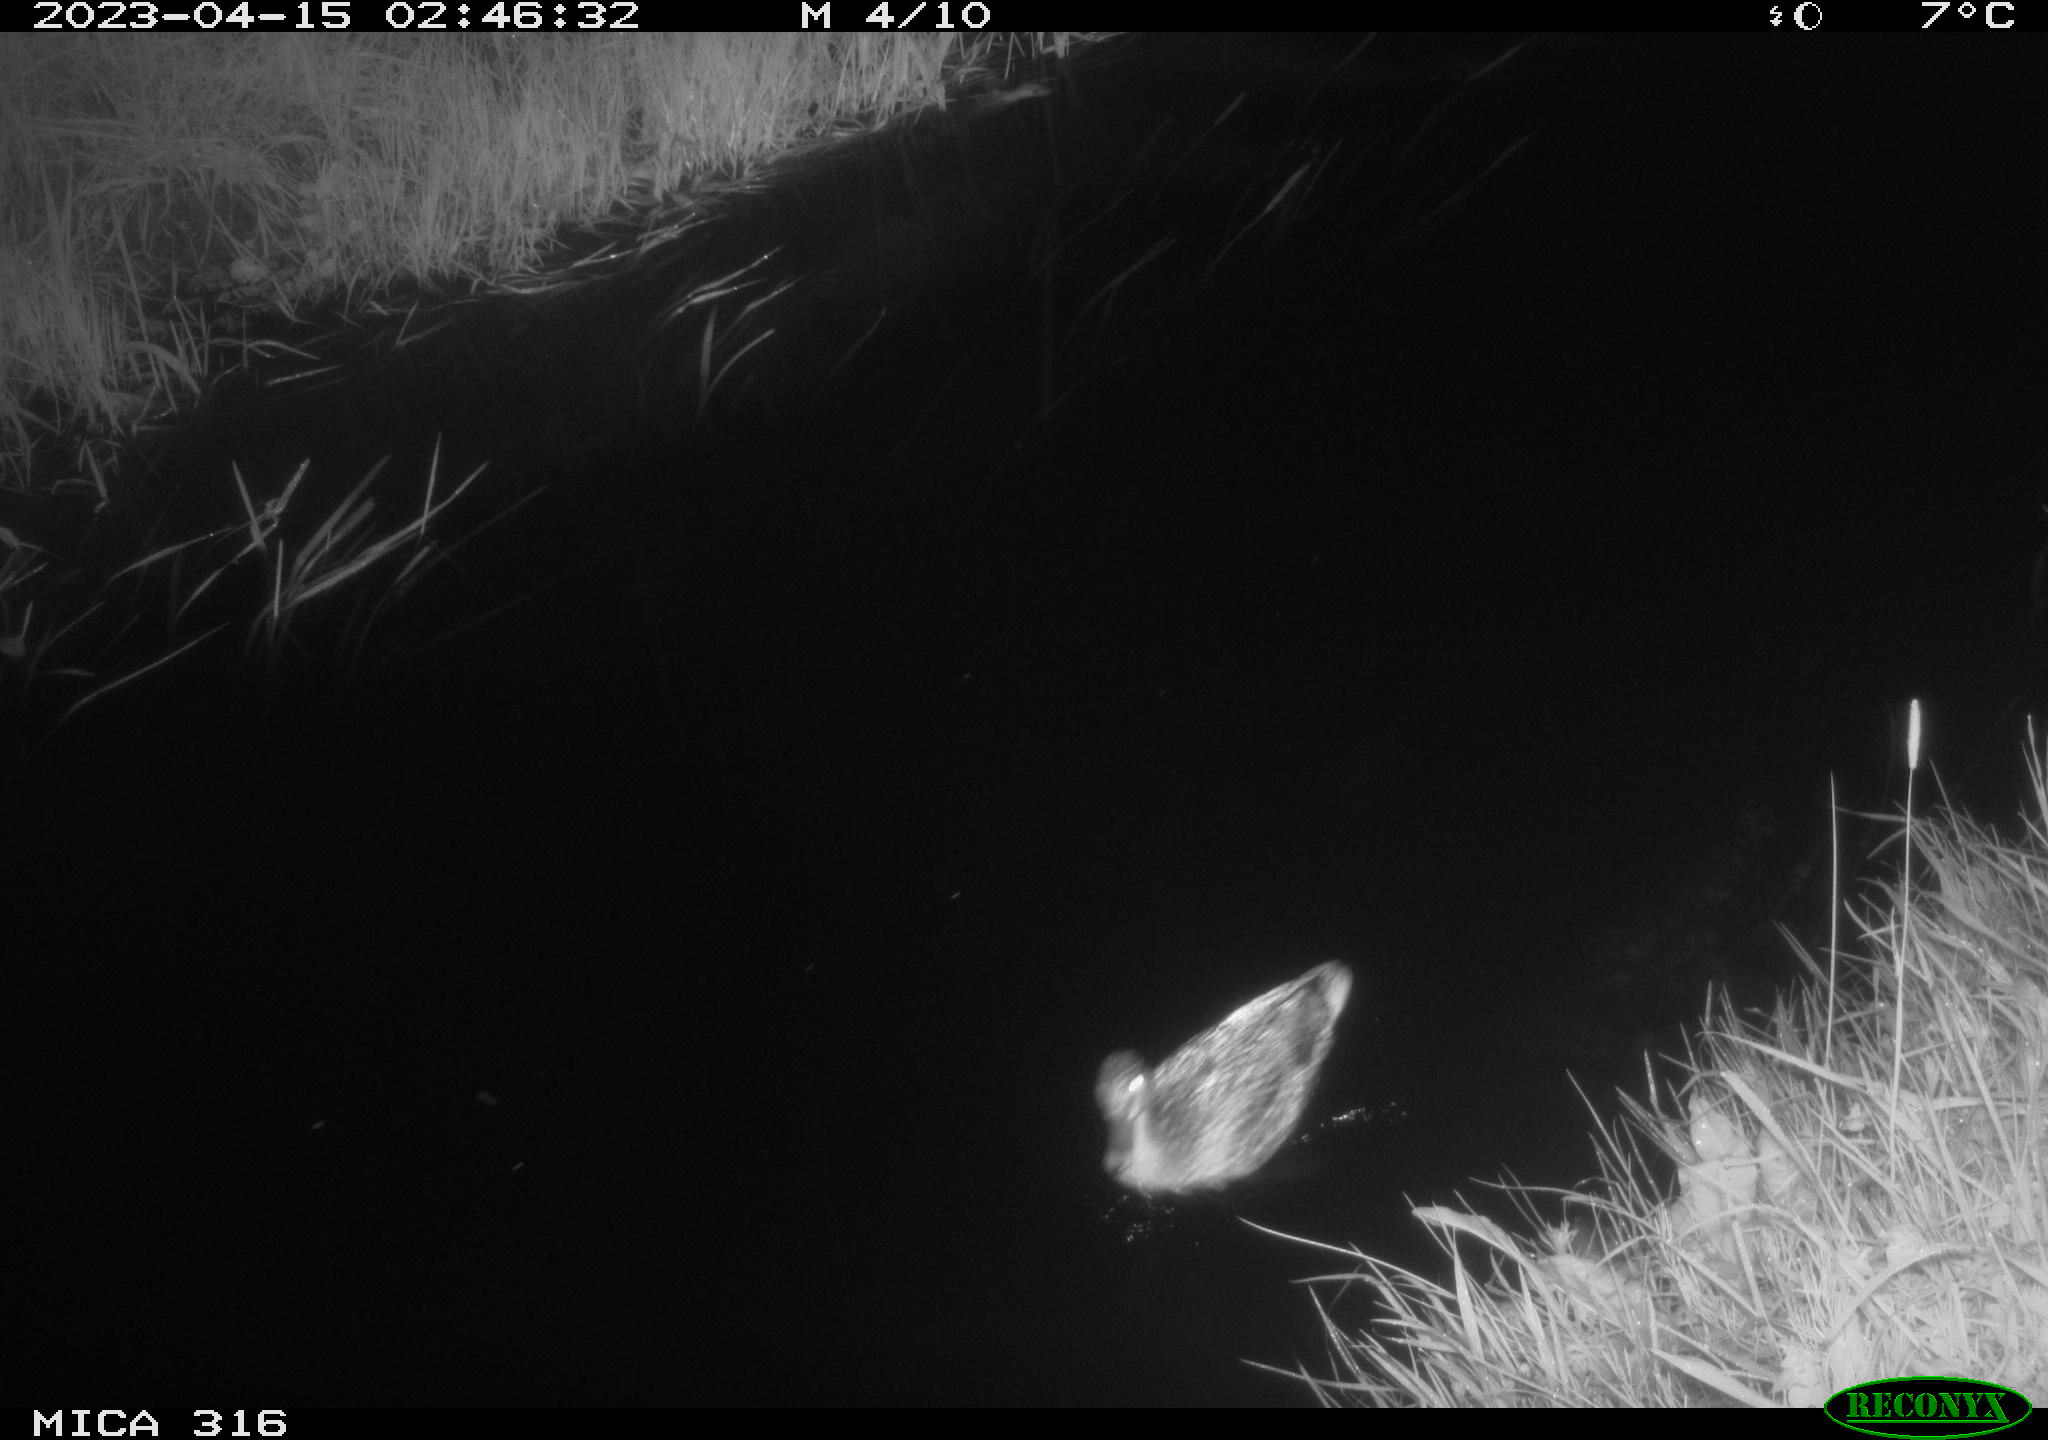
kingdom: Animalia
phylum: Chordata
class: Aves
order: Anseriformes
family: Anatidae
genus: Anas
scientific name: Anas
